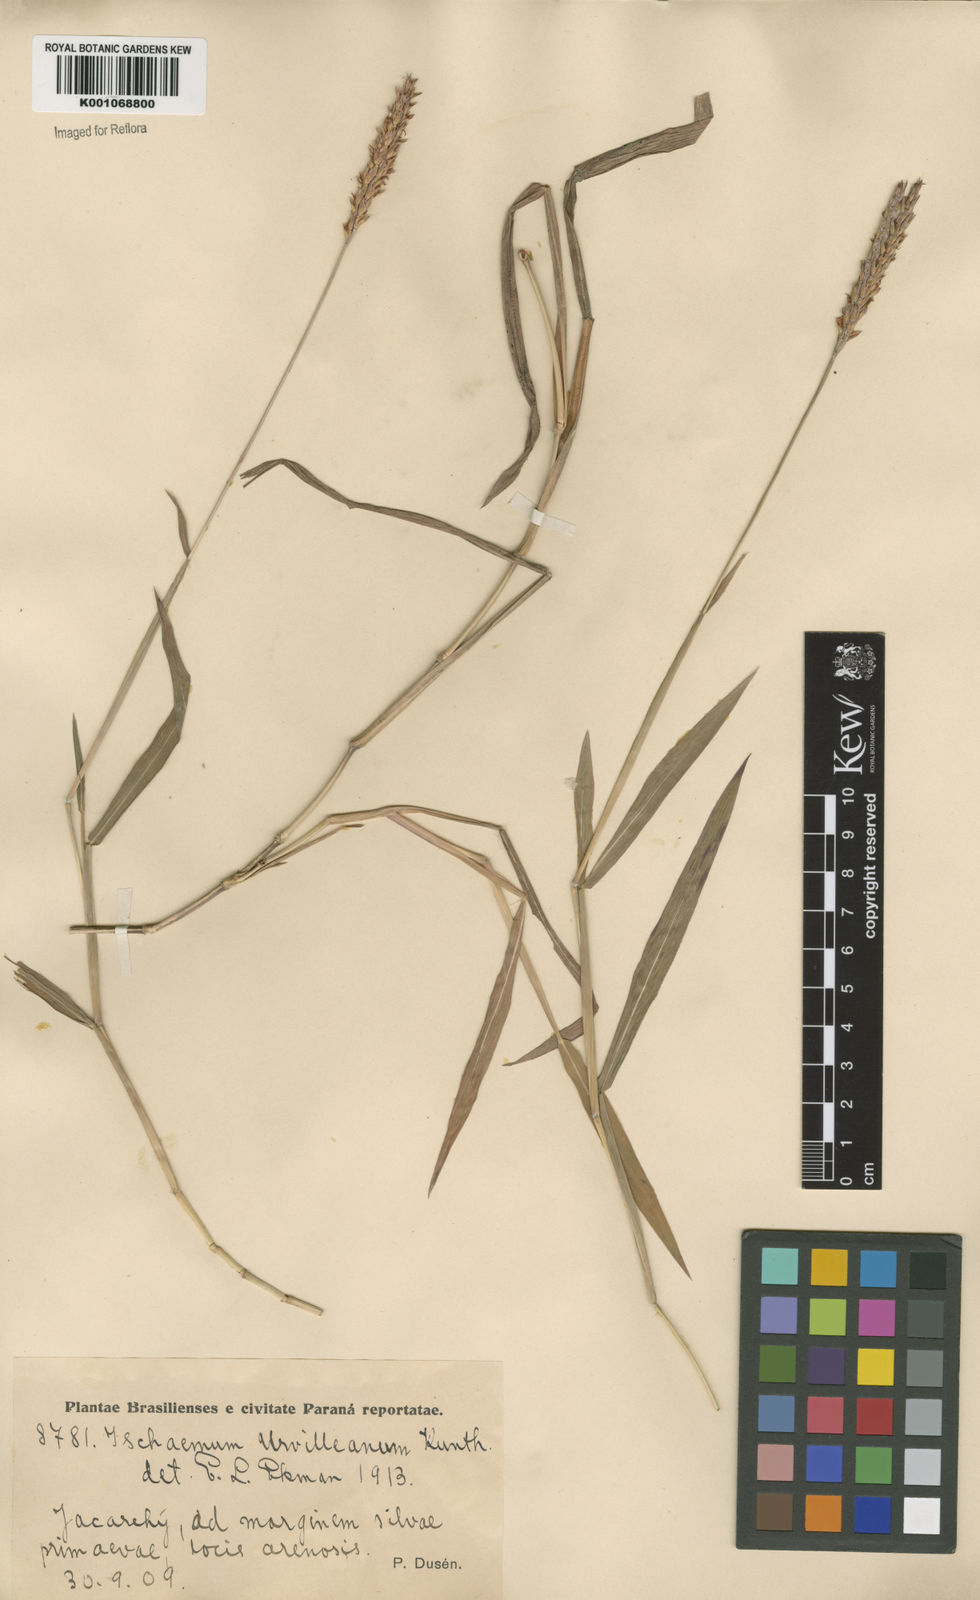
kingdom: Plantae
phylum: Tracheophyta
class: Liliopsida
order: Poales
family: Poaceae
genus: Ischaemum
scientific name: Ischaemum minus
